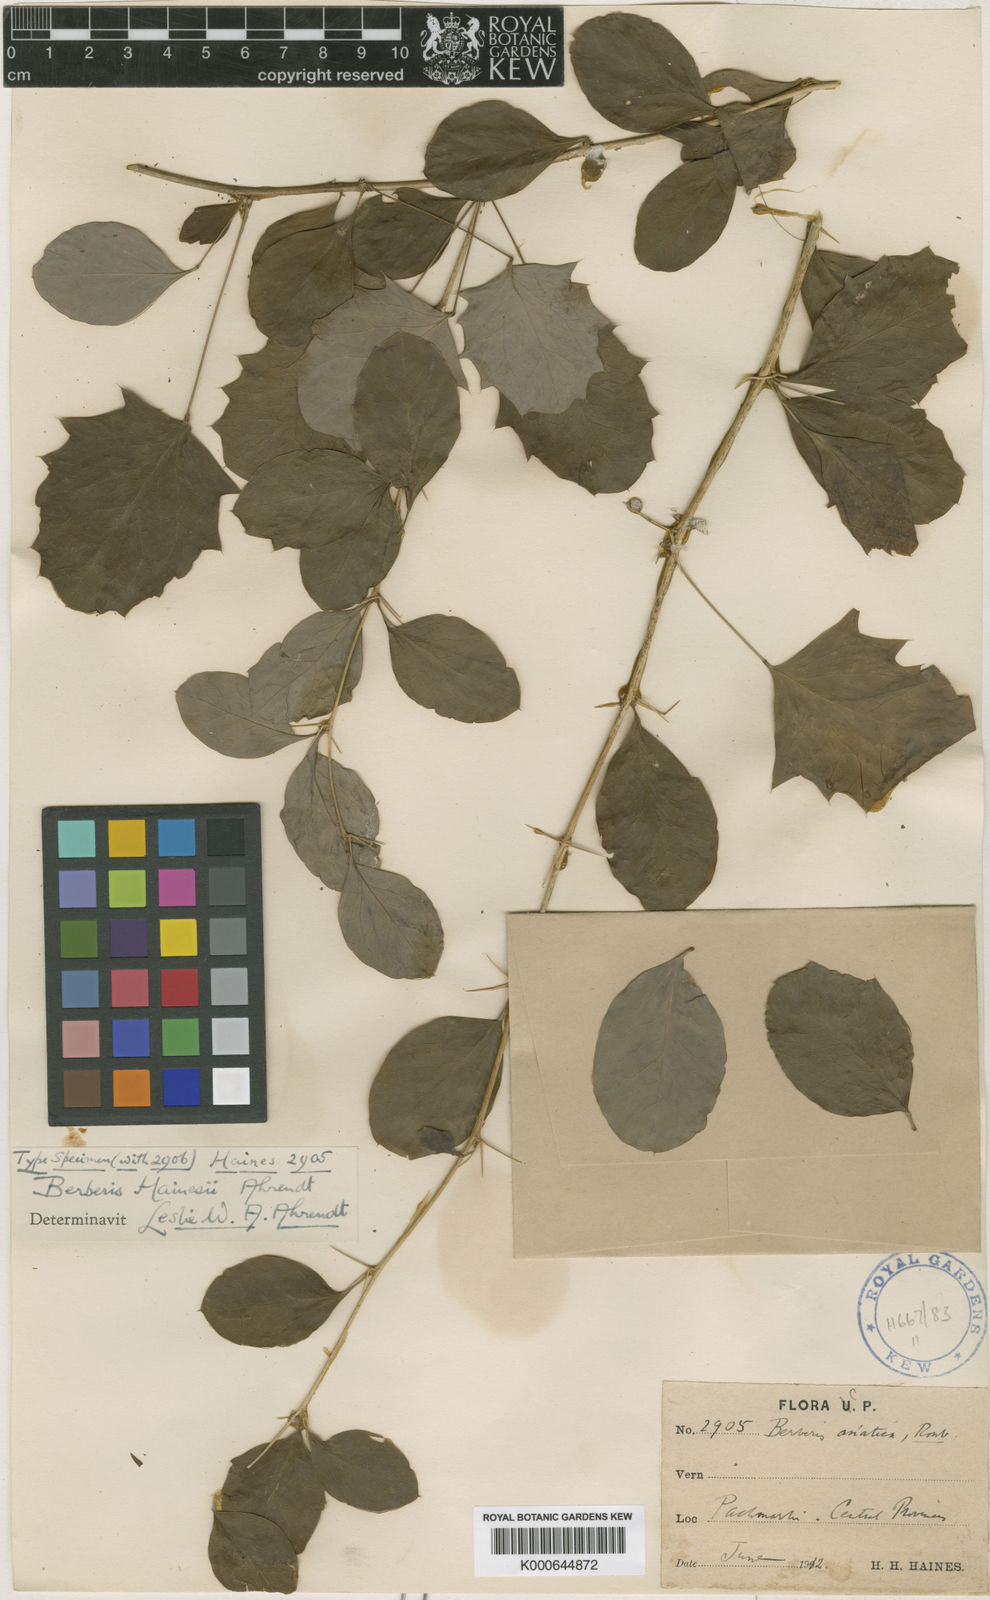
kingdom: Plantae
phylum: Tracheophyta
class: Magnoliopsida
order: Ranunculales
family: Berberidaceae
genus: Berberis
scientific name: Berberis hainesii
